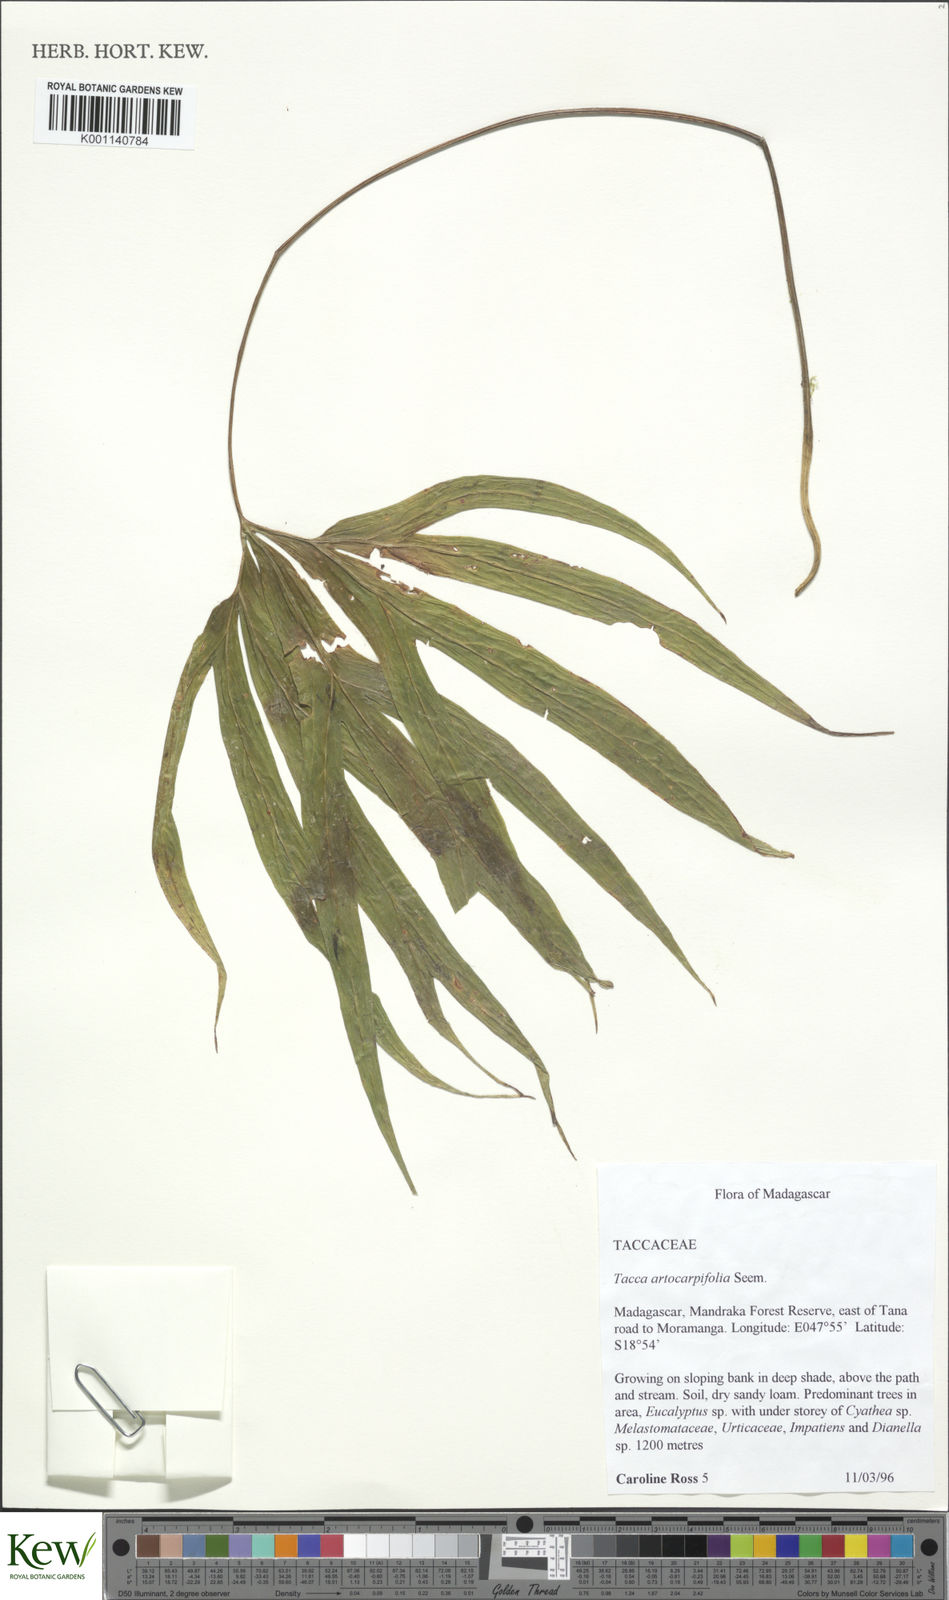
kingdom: Plantae
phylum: Tracheophyta
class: Liliopsida
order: Dioscoreales
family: Dioscoreaceae
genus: Tacca
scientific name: Tacca leontopetaloides
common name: Arrowroot
